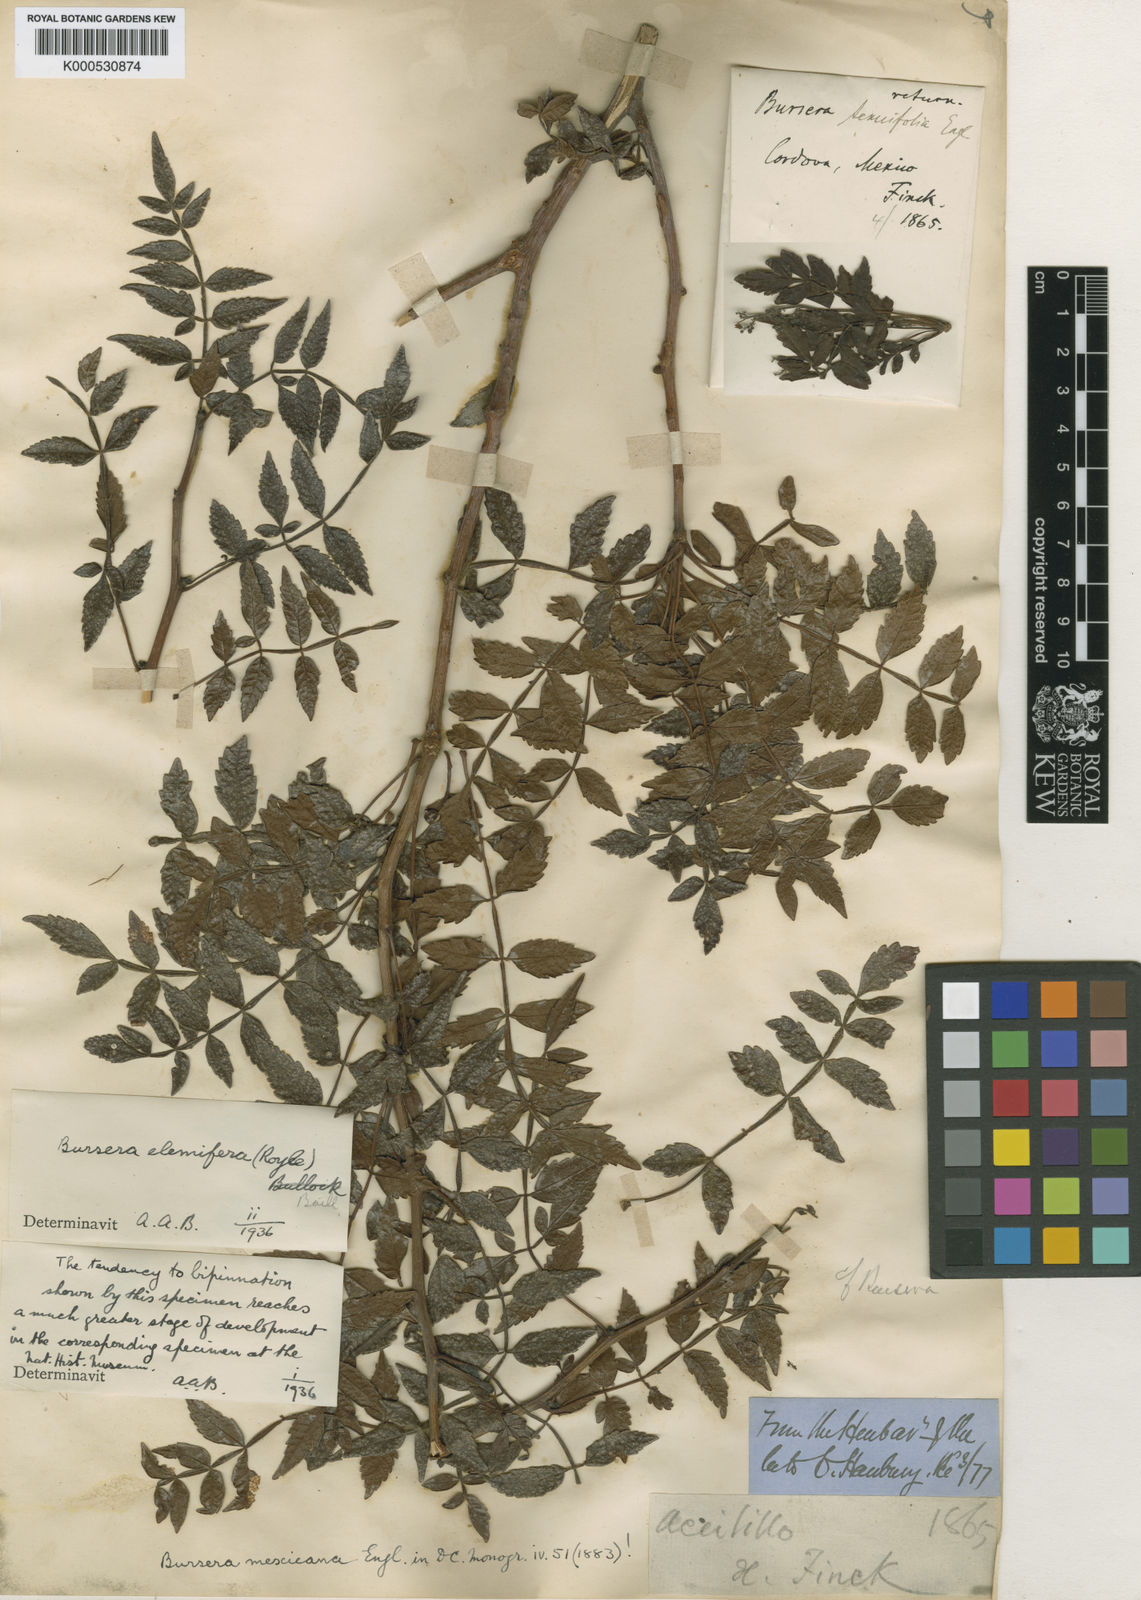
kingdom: Plantae
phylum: Tracheophyta
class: Magnoliopsida
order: Sapindales
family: Burseraceae
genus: Bursera
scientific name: Bursera bipinnata
